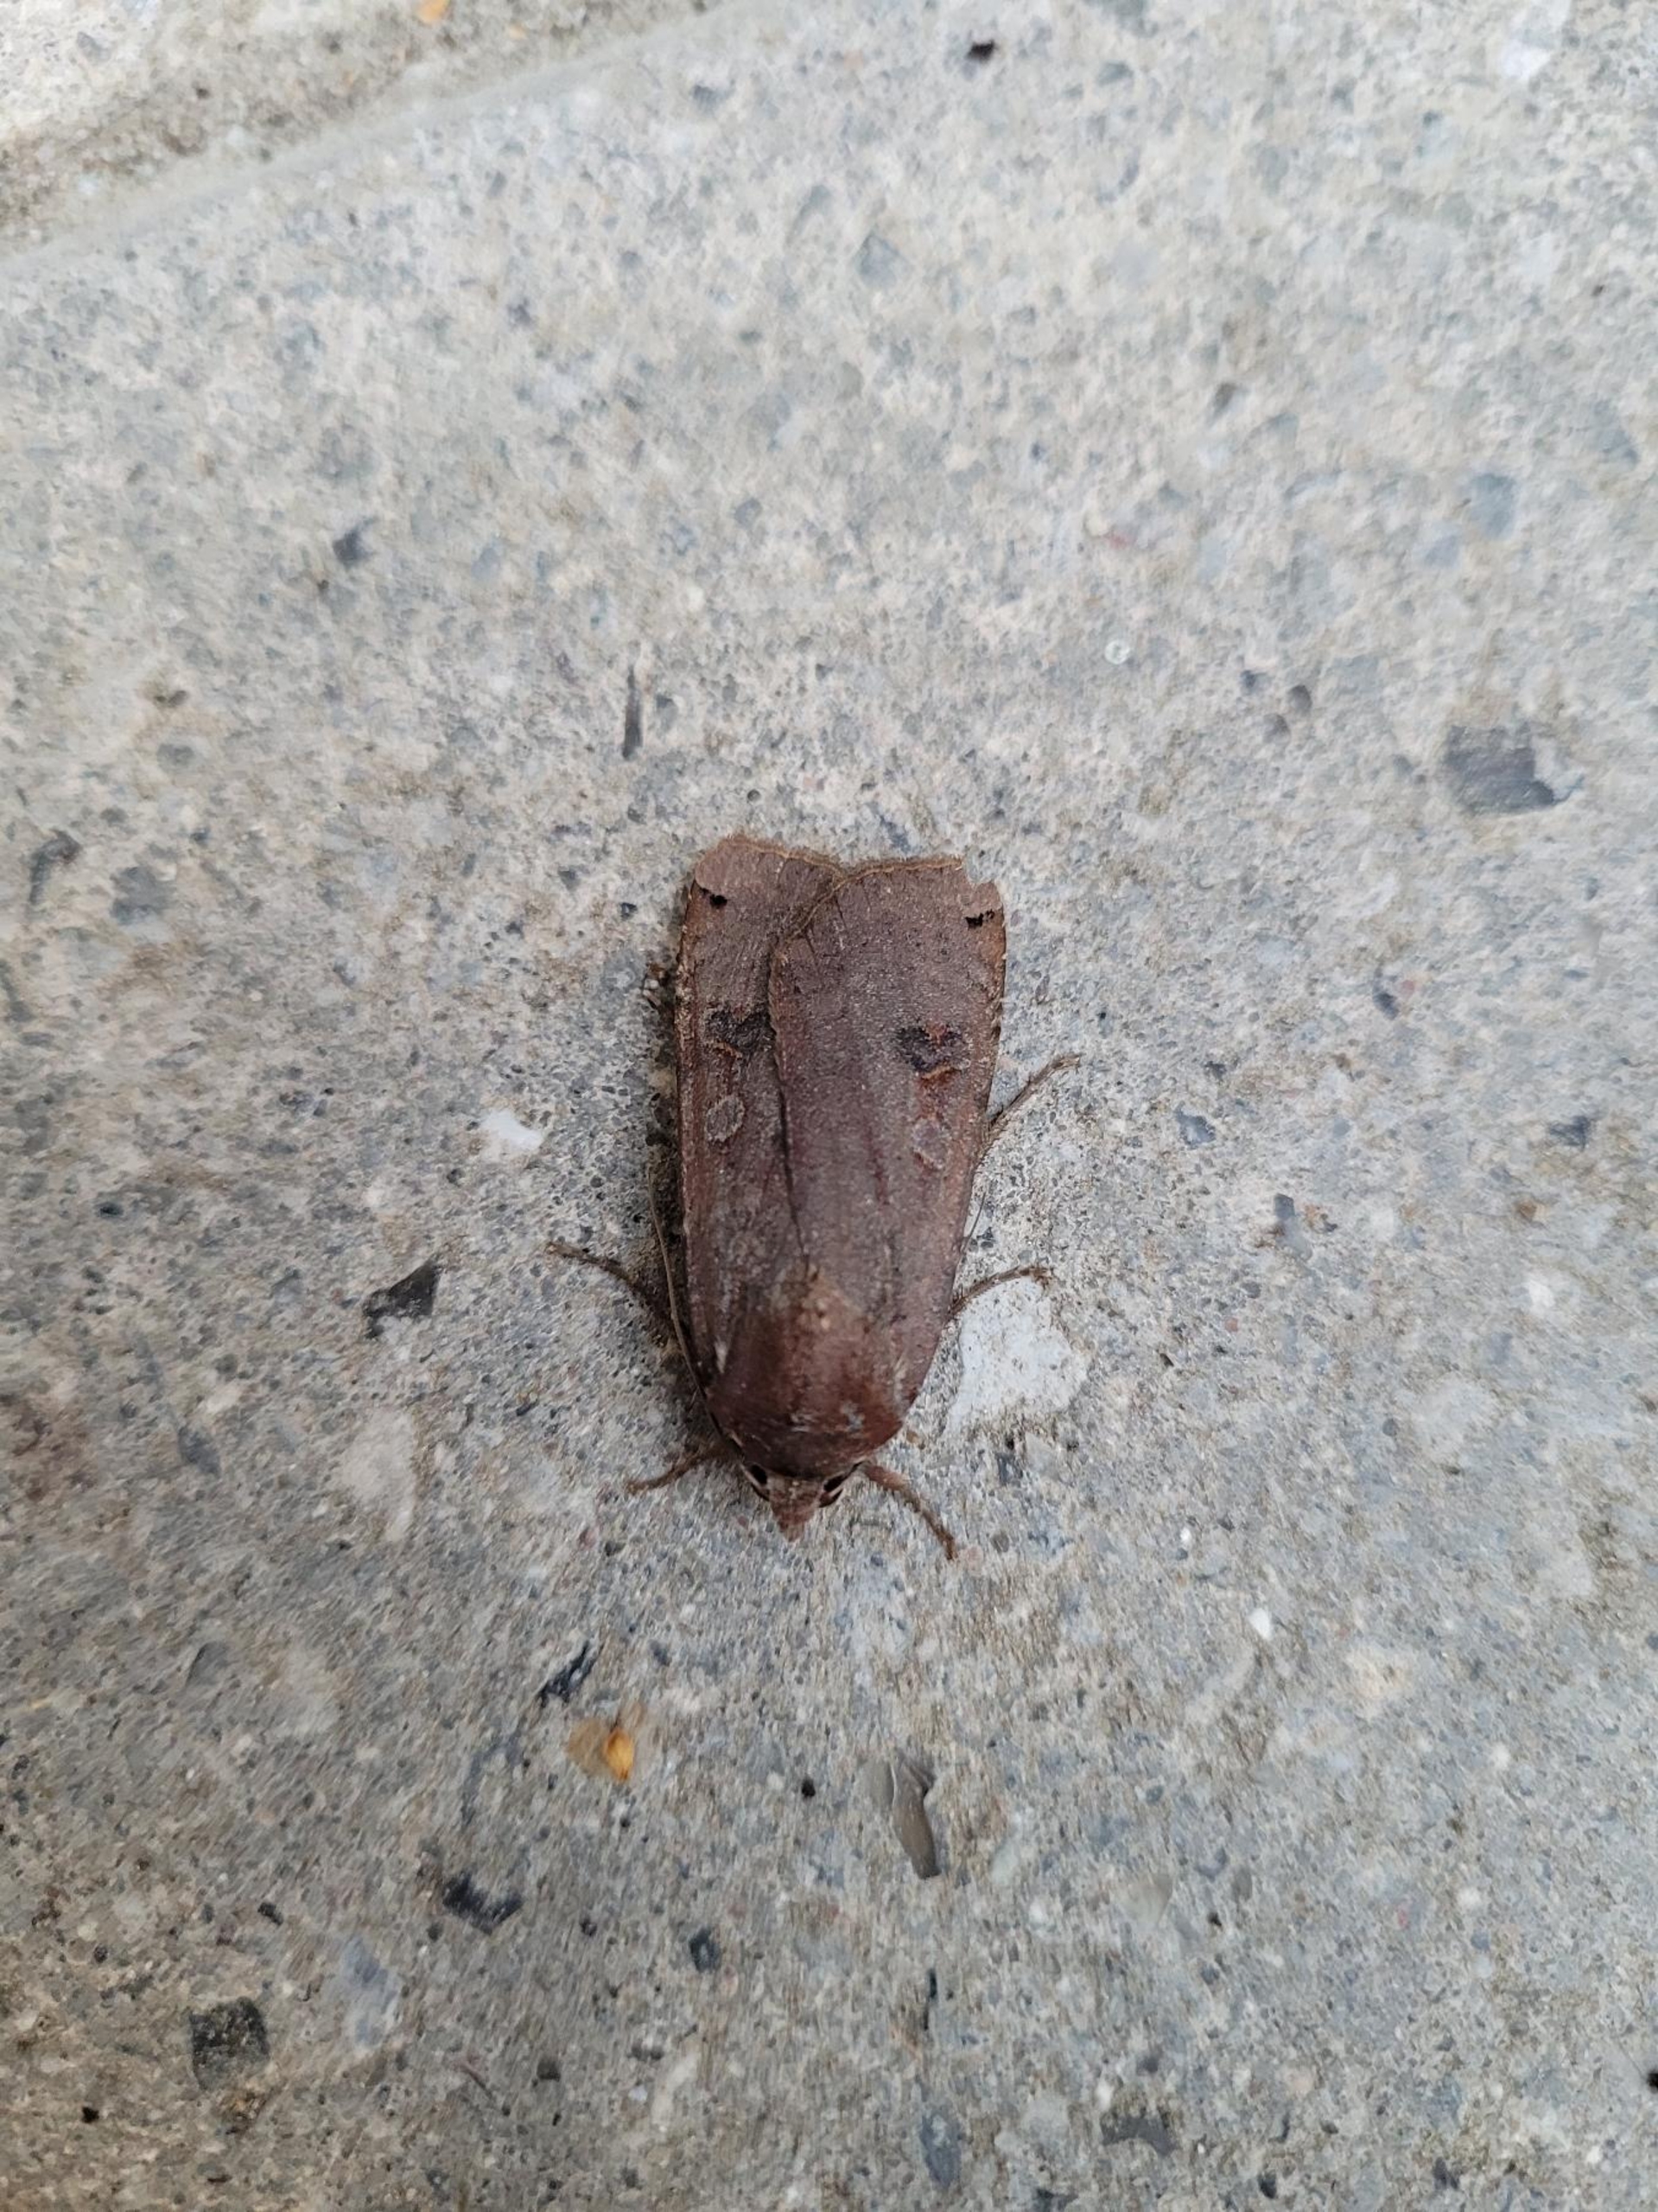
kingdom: Animalia
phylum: Arthropoda
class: Insecta
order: Lepidoptera
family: Noctuidae
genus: Noctua
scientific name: Noctua pronuba
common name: Stor smutugle
